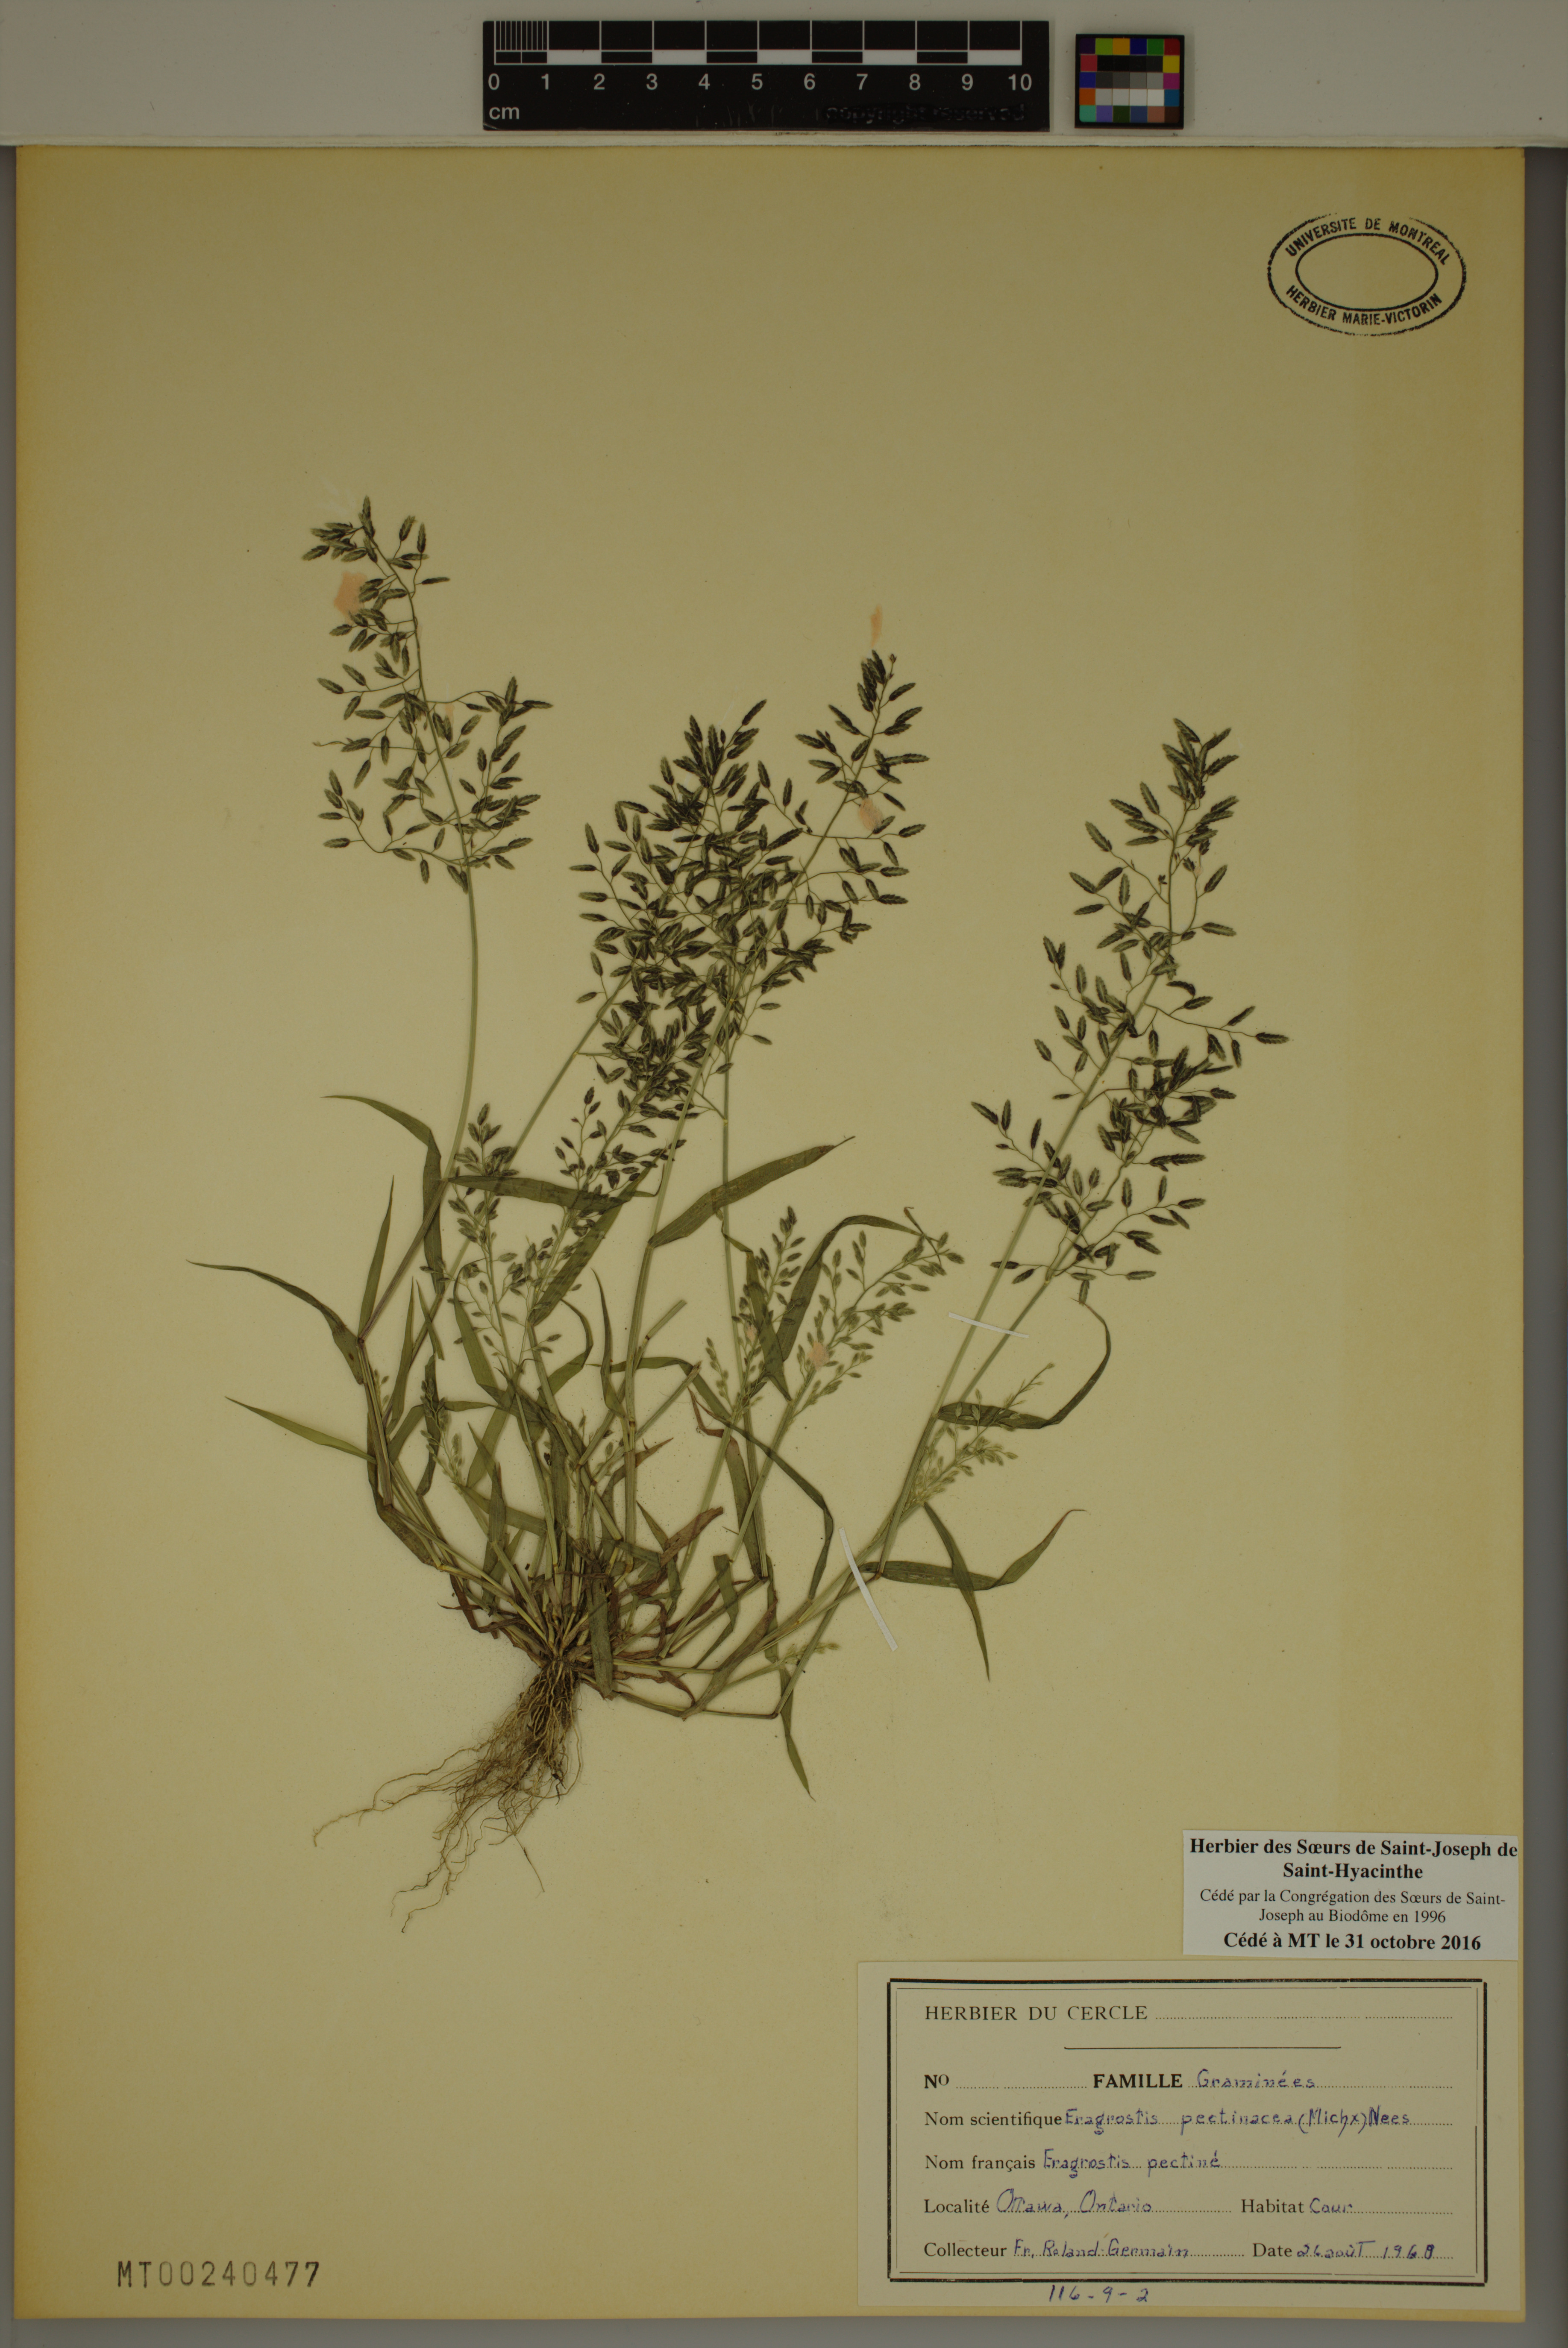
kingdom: Plantae
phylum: Tracheophyta
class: Liliopsida
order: Poales
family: Poaceae
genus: Eragrostis
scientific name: Eragrostis pectinacea
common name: Tufted lovegrass
